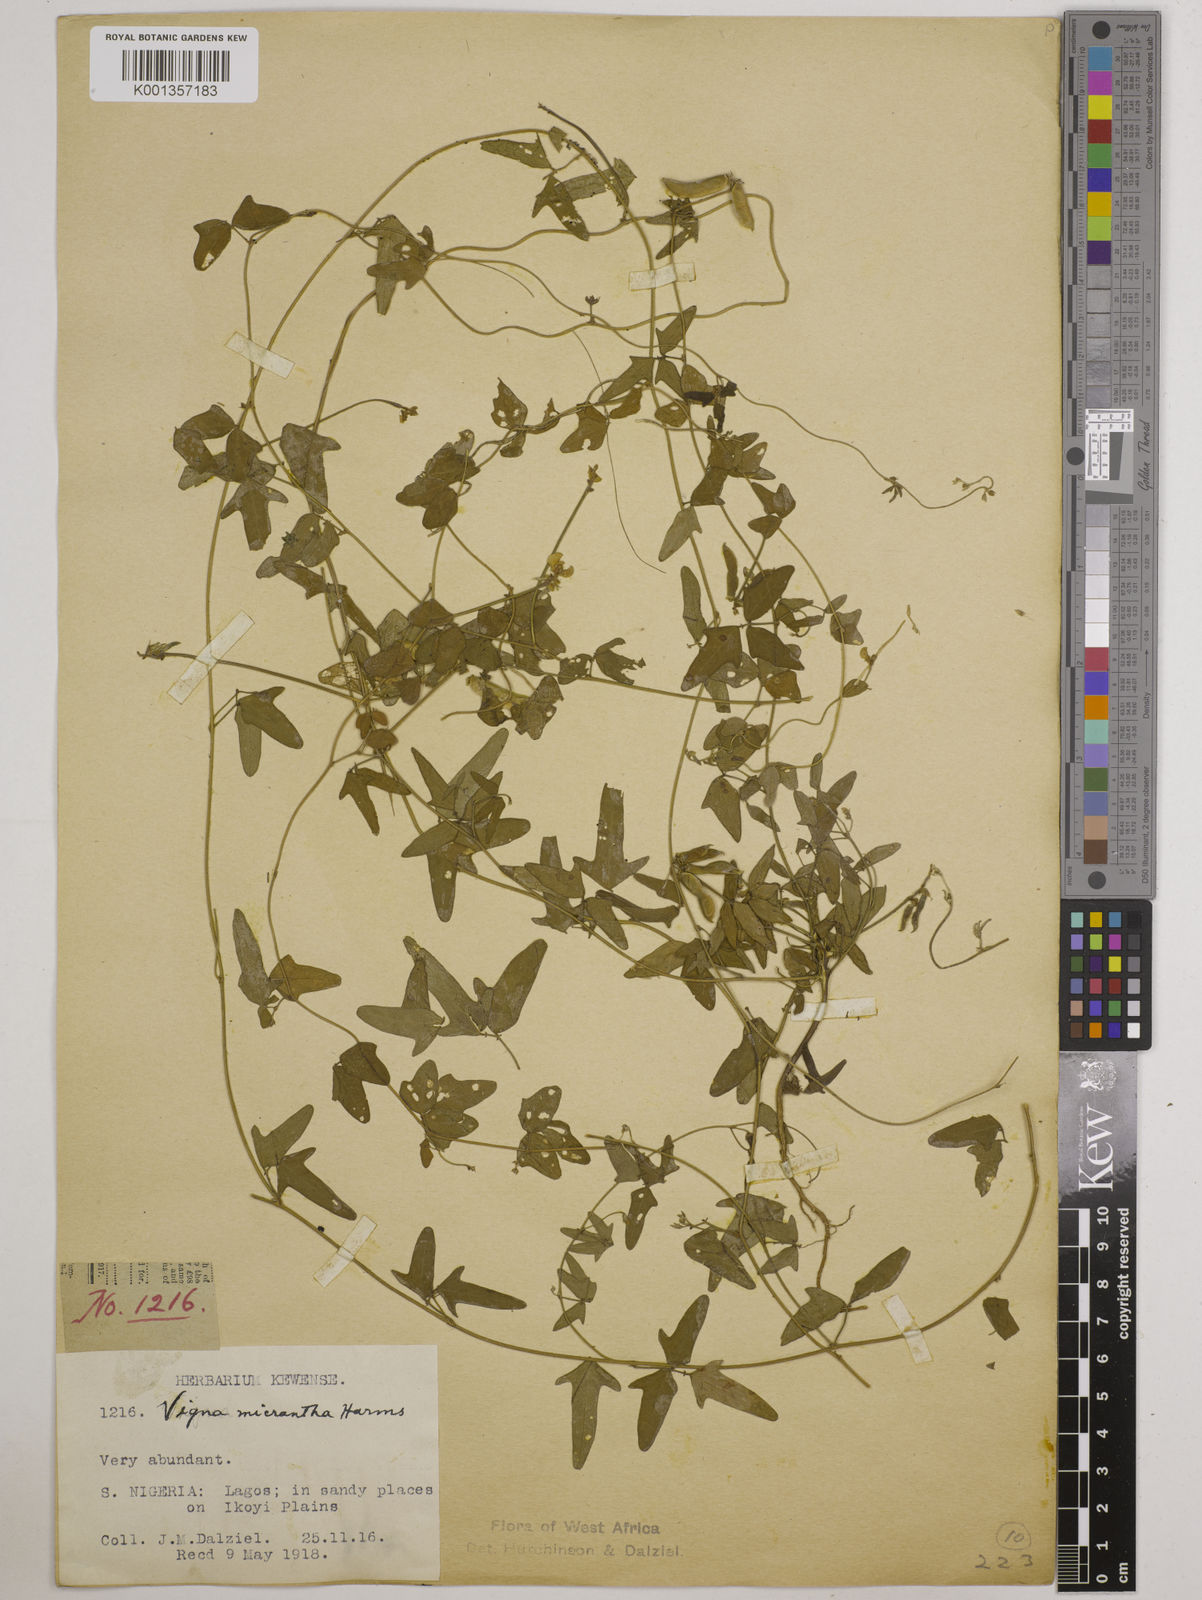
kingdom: Plantae
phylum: Tracheophyta
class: Magnoliopsida
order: Fabales
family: Fabaceae
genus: Vigna
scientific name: Vigna comosa
